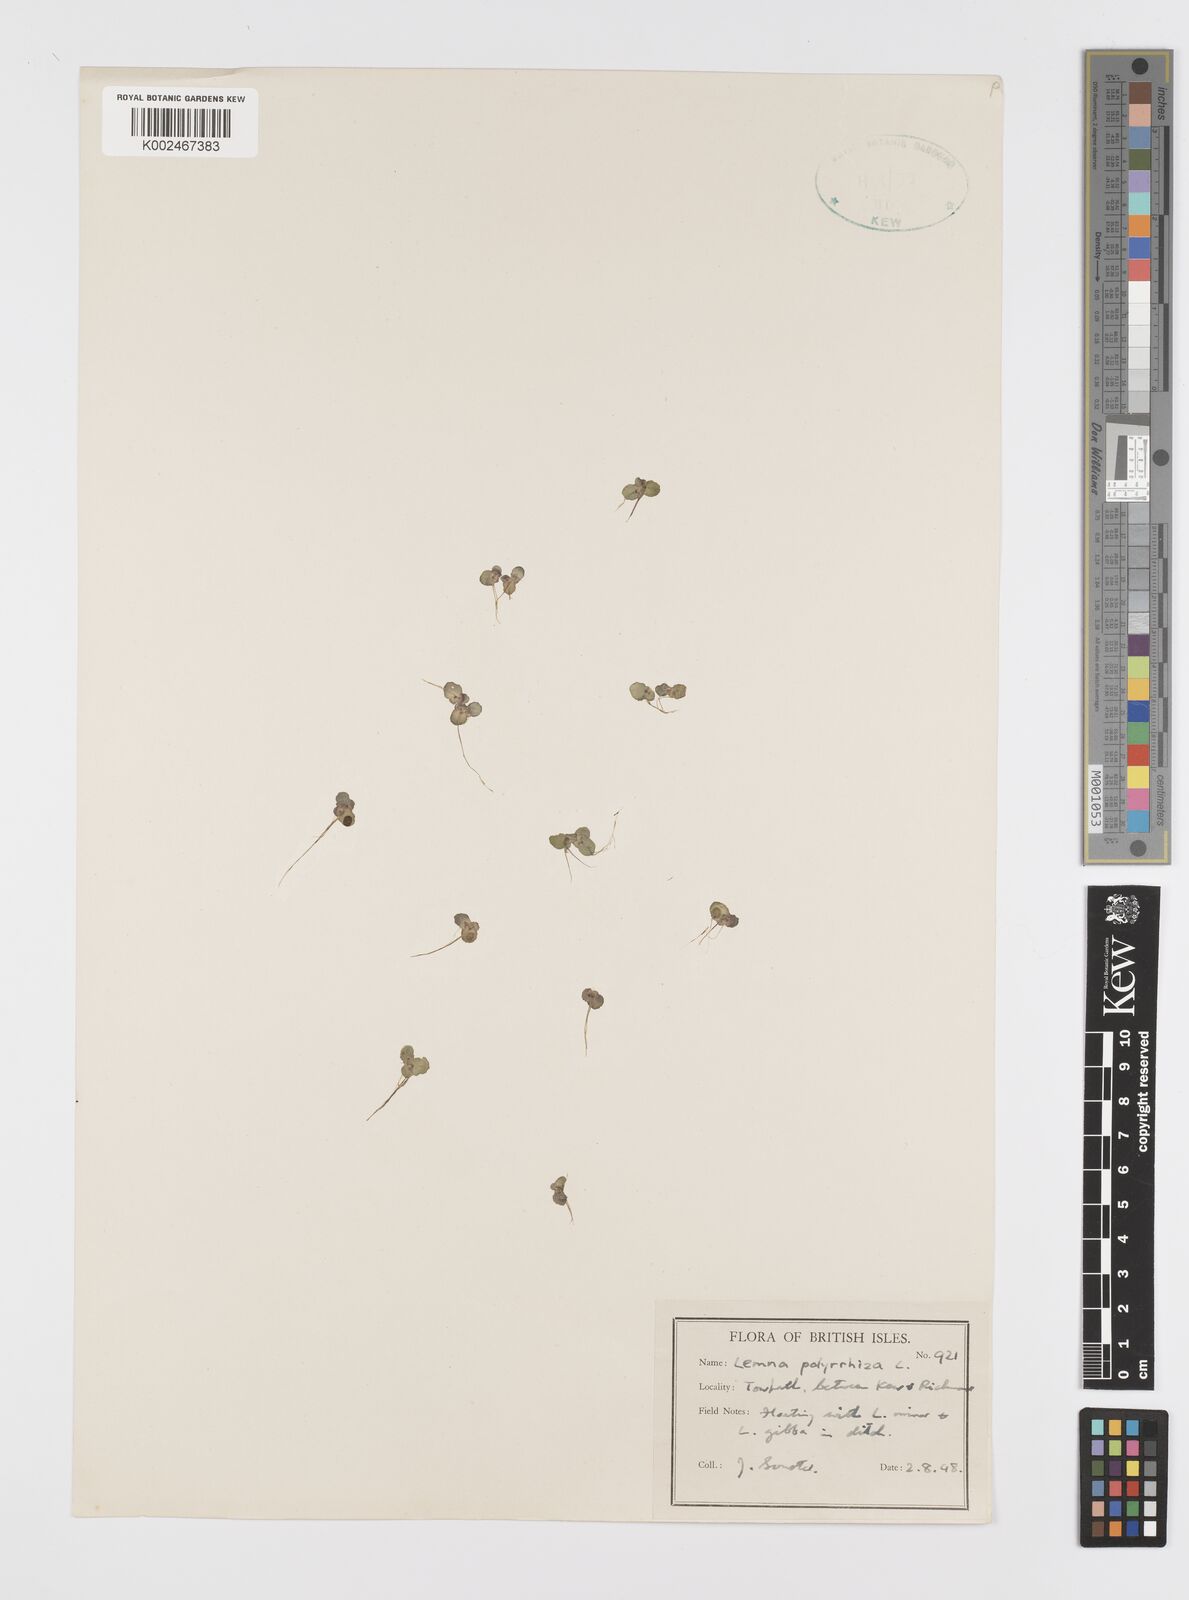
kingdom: Plantae
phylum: Tracheophyta
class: Liliopsida
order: Alismatales
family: Araceae
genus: Spirodela
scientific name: Spirodela polyrhiza
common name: Great duckweed
